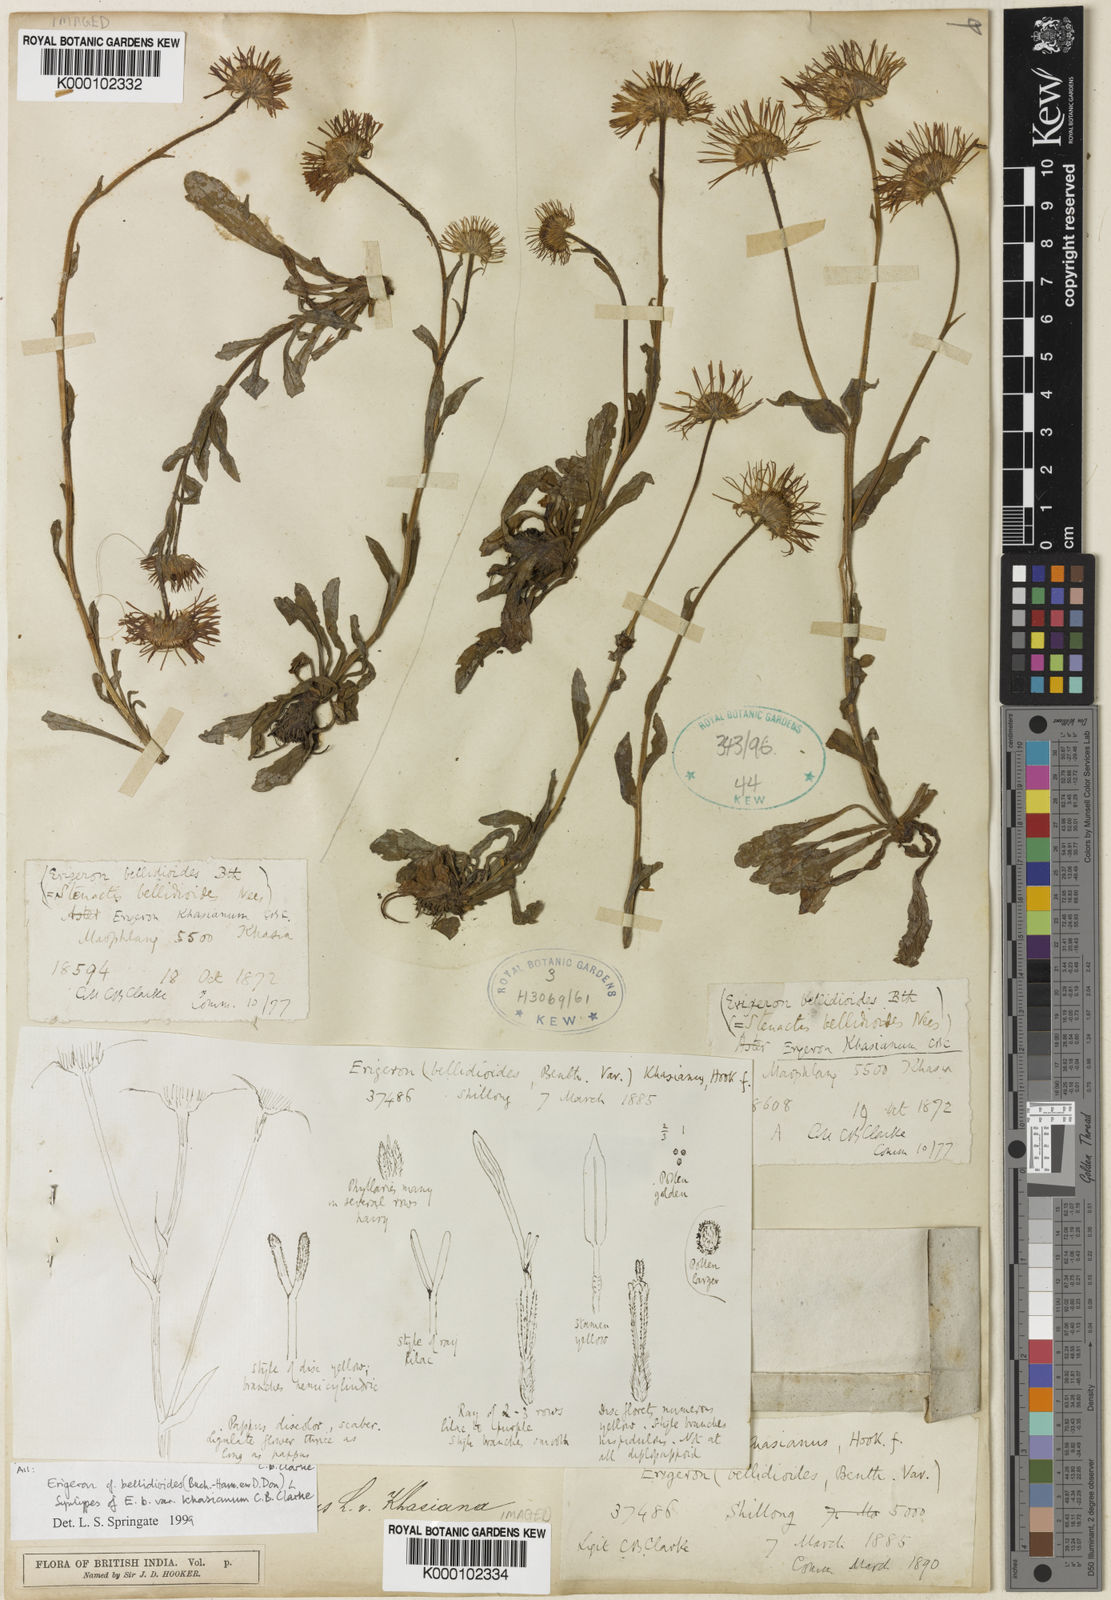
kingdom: Plantae
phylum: Tracheophyta
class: Magnoliopsida
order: Asterales
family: Asteraceae
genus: Erigeron
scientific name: Erigeron alpinus
